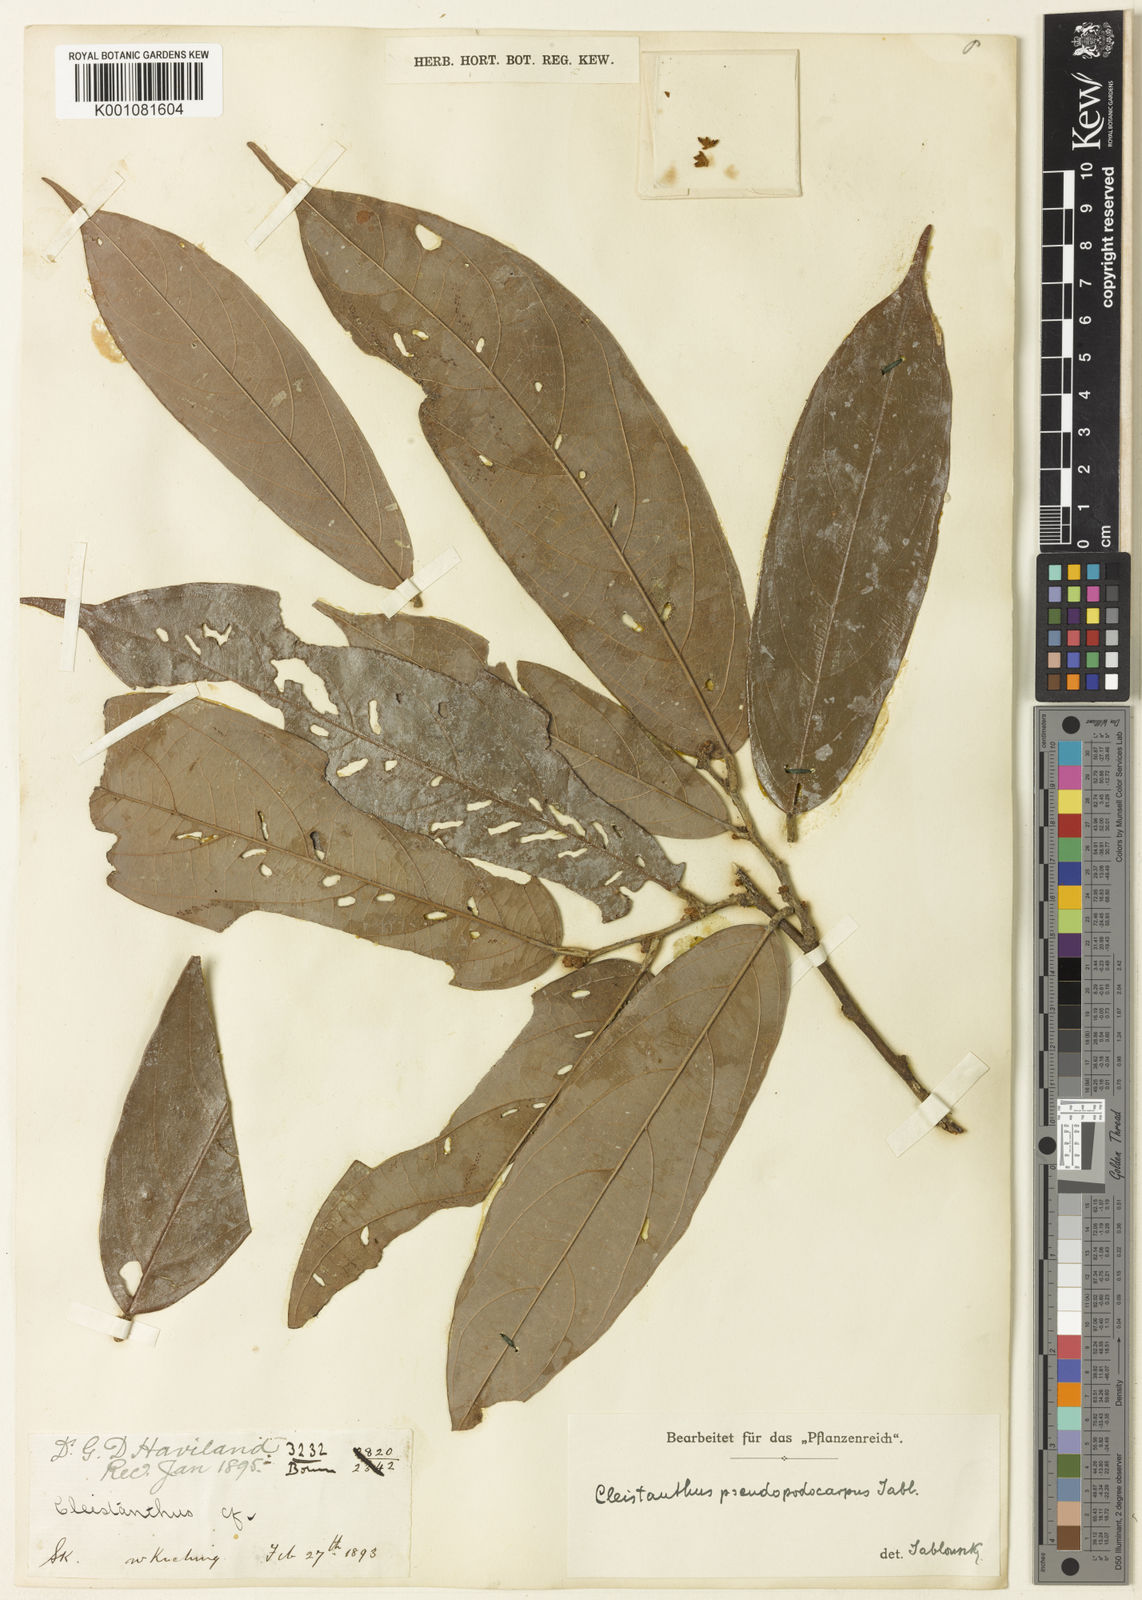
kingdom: Plantae
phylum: Tracheophyta
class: Magnoliopsida
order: Malpighiales
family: Phyllanthaceae
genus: Cleistanthus
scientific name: Cleistanthus pseudopodocarpus
